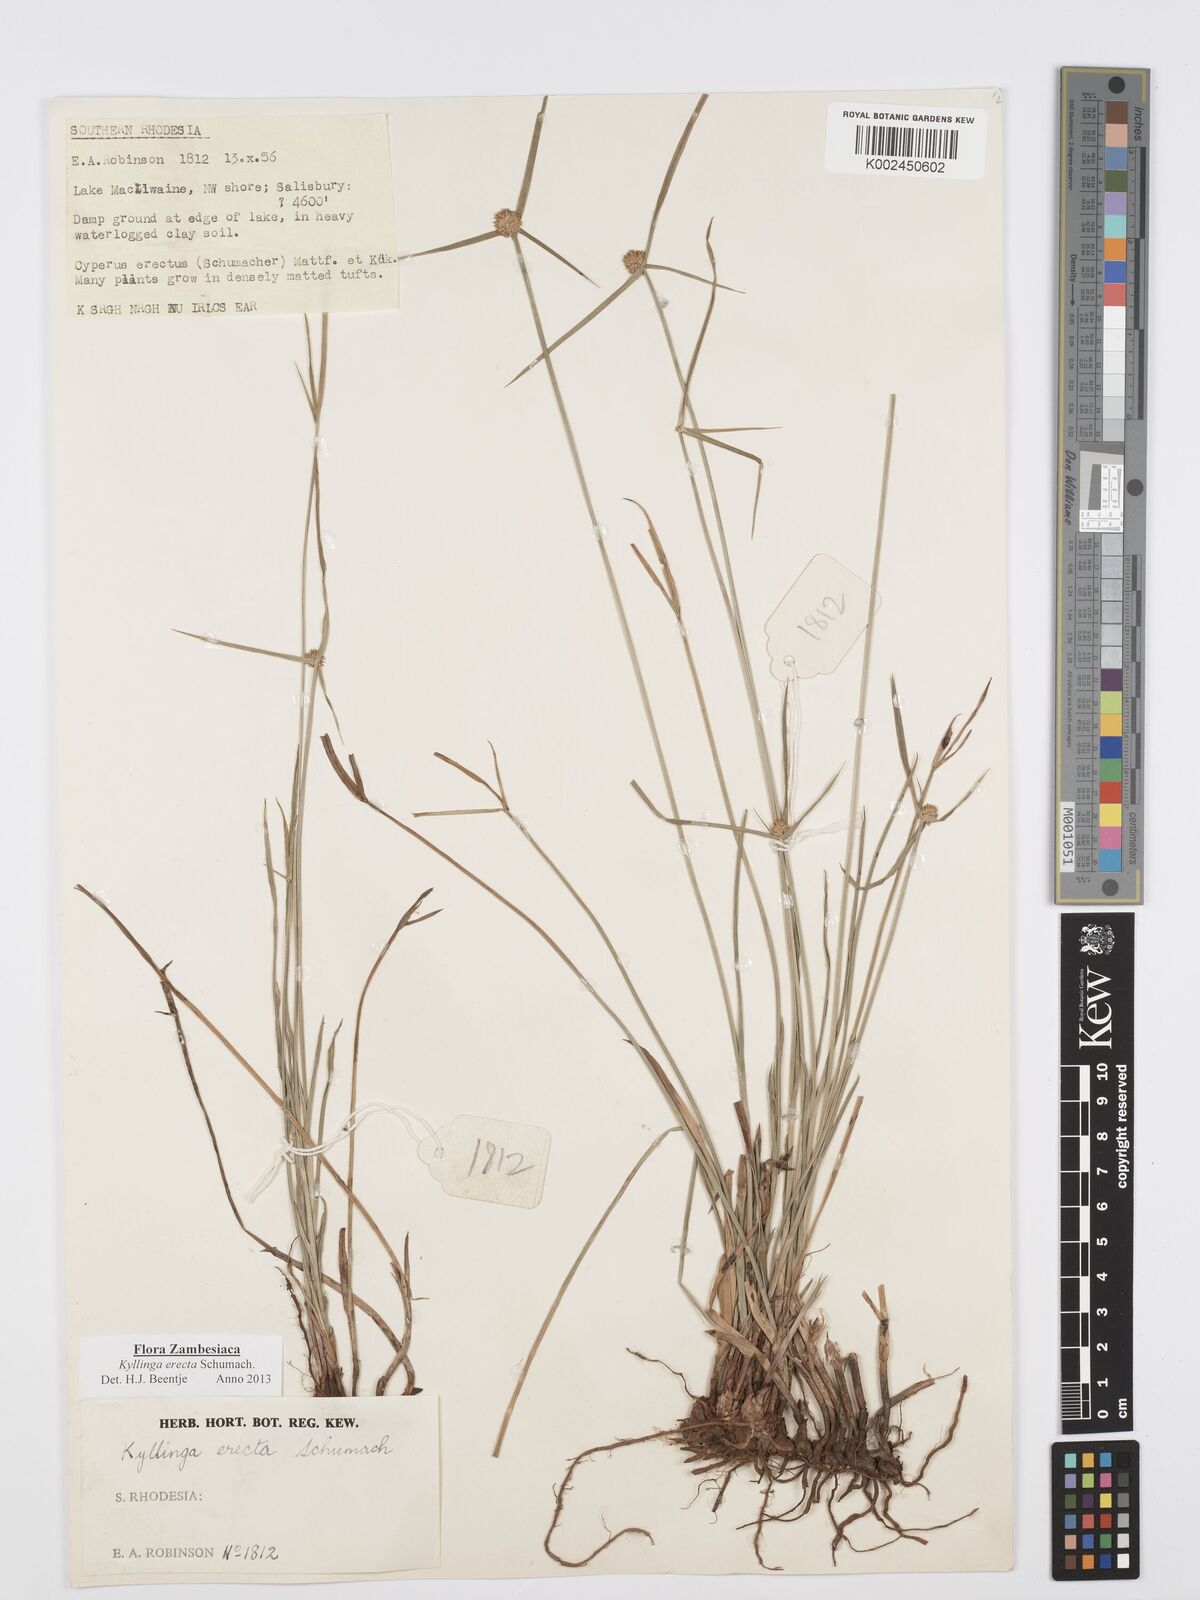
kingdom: Plantae
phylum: Tracheophyta
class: Liliopsida
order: Poales
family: Cyperaceae
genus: Cyperus
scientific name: Cyperus erectus
